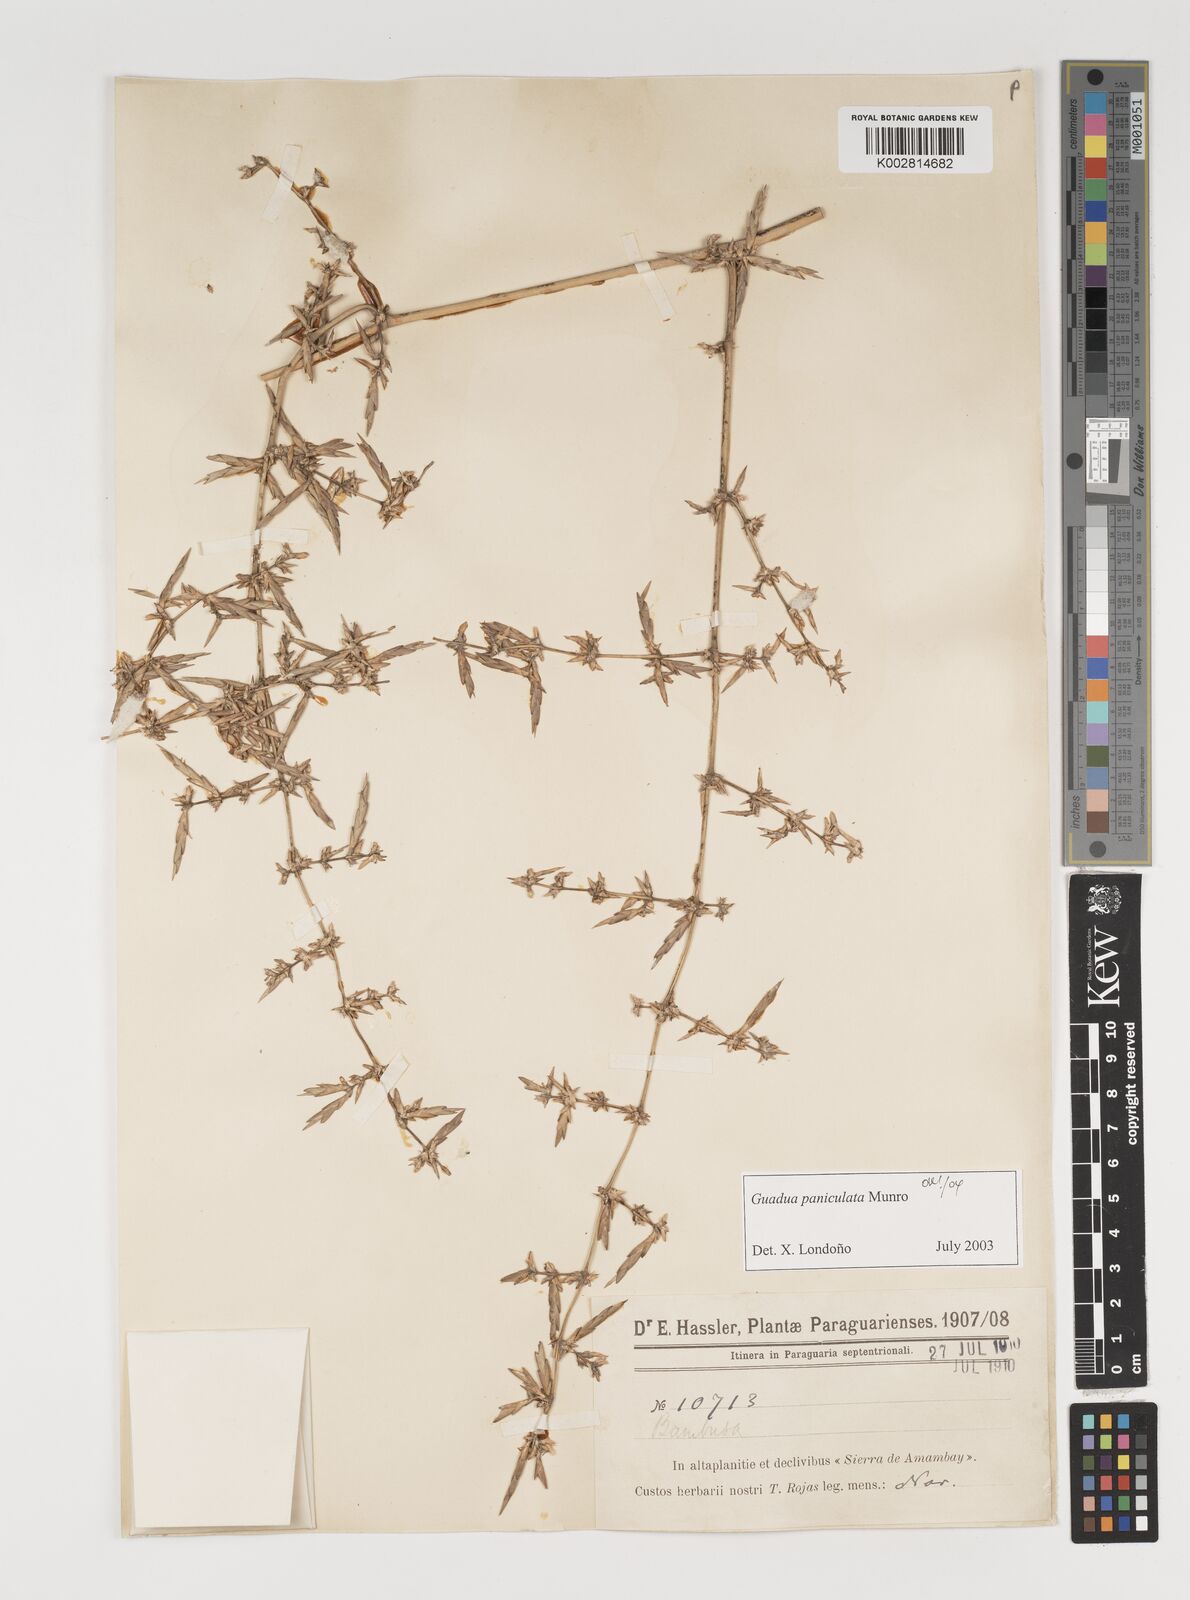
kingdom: Plantae
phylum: Tracheophyta
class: Liliopsida
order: Poales
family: Poaceae
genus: Guadua
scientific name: Guadua paniculata
